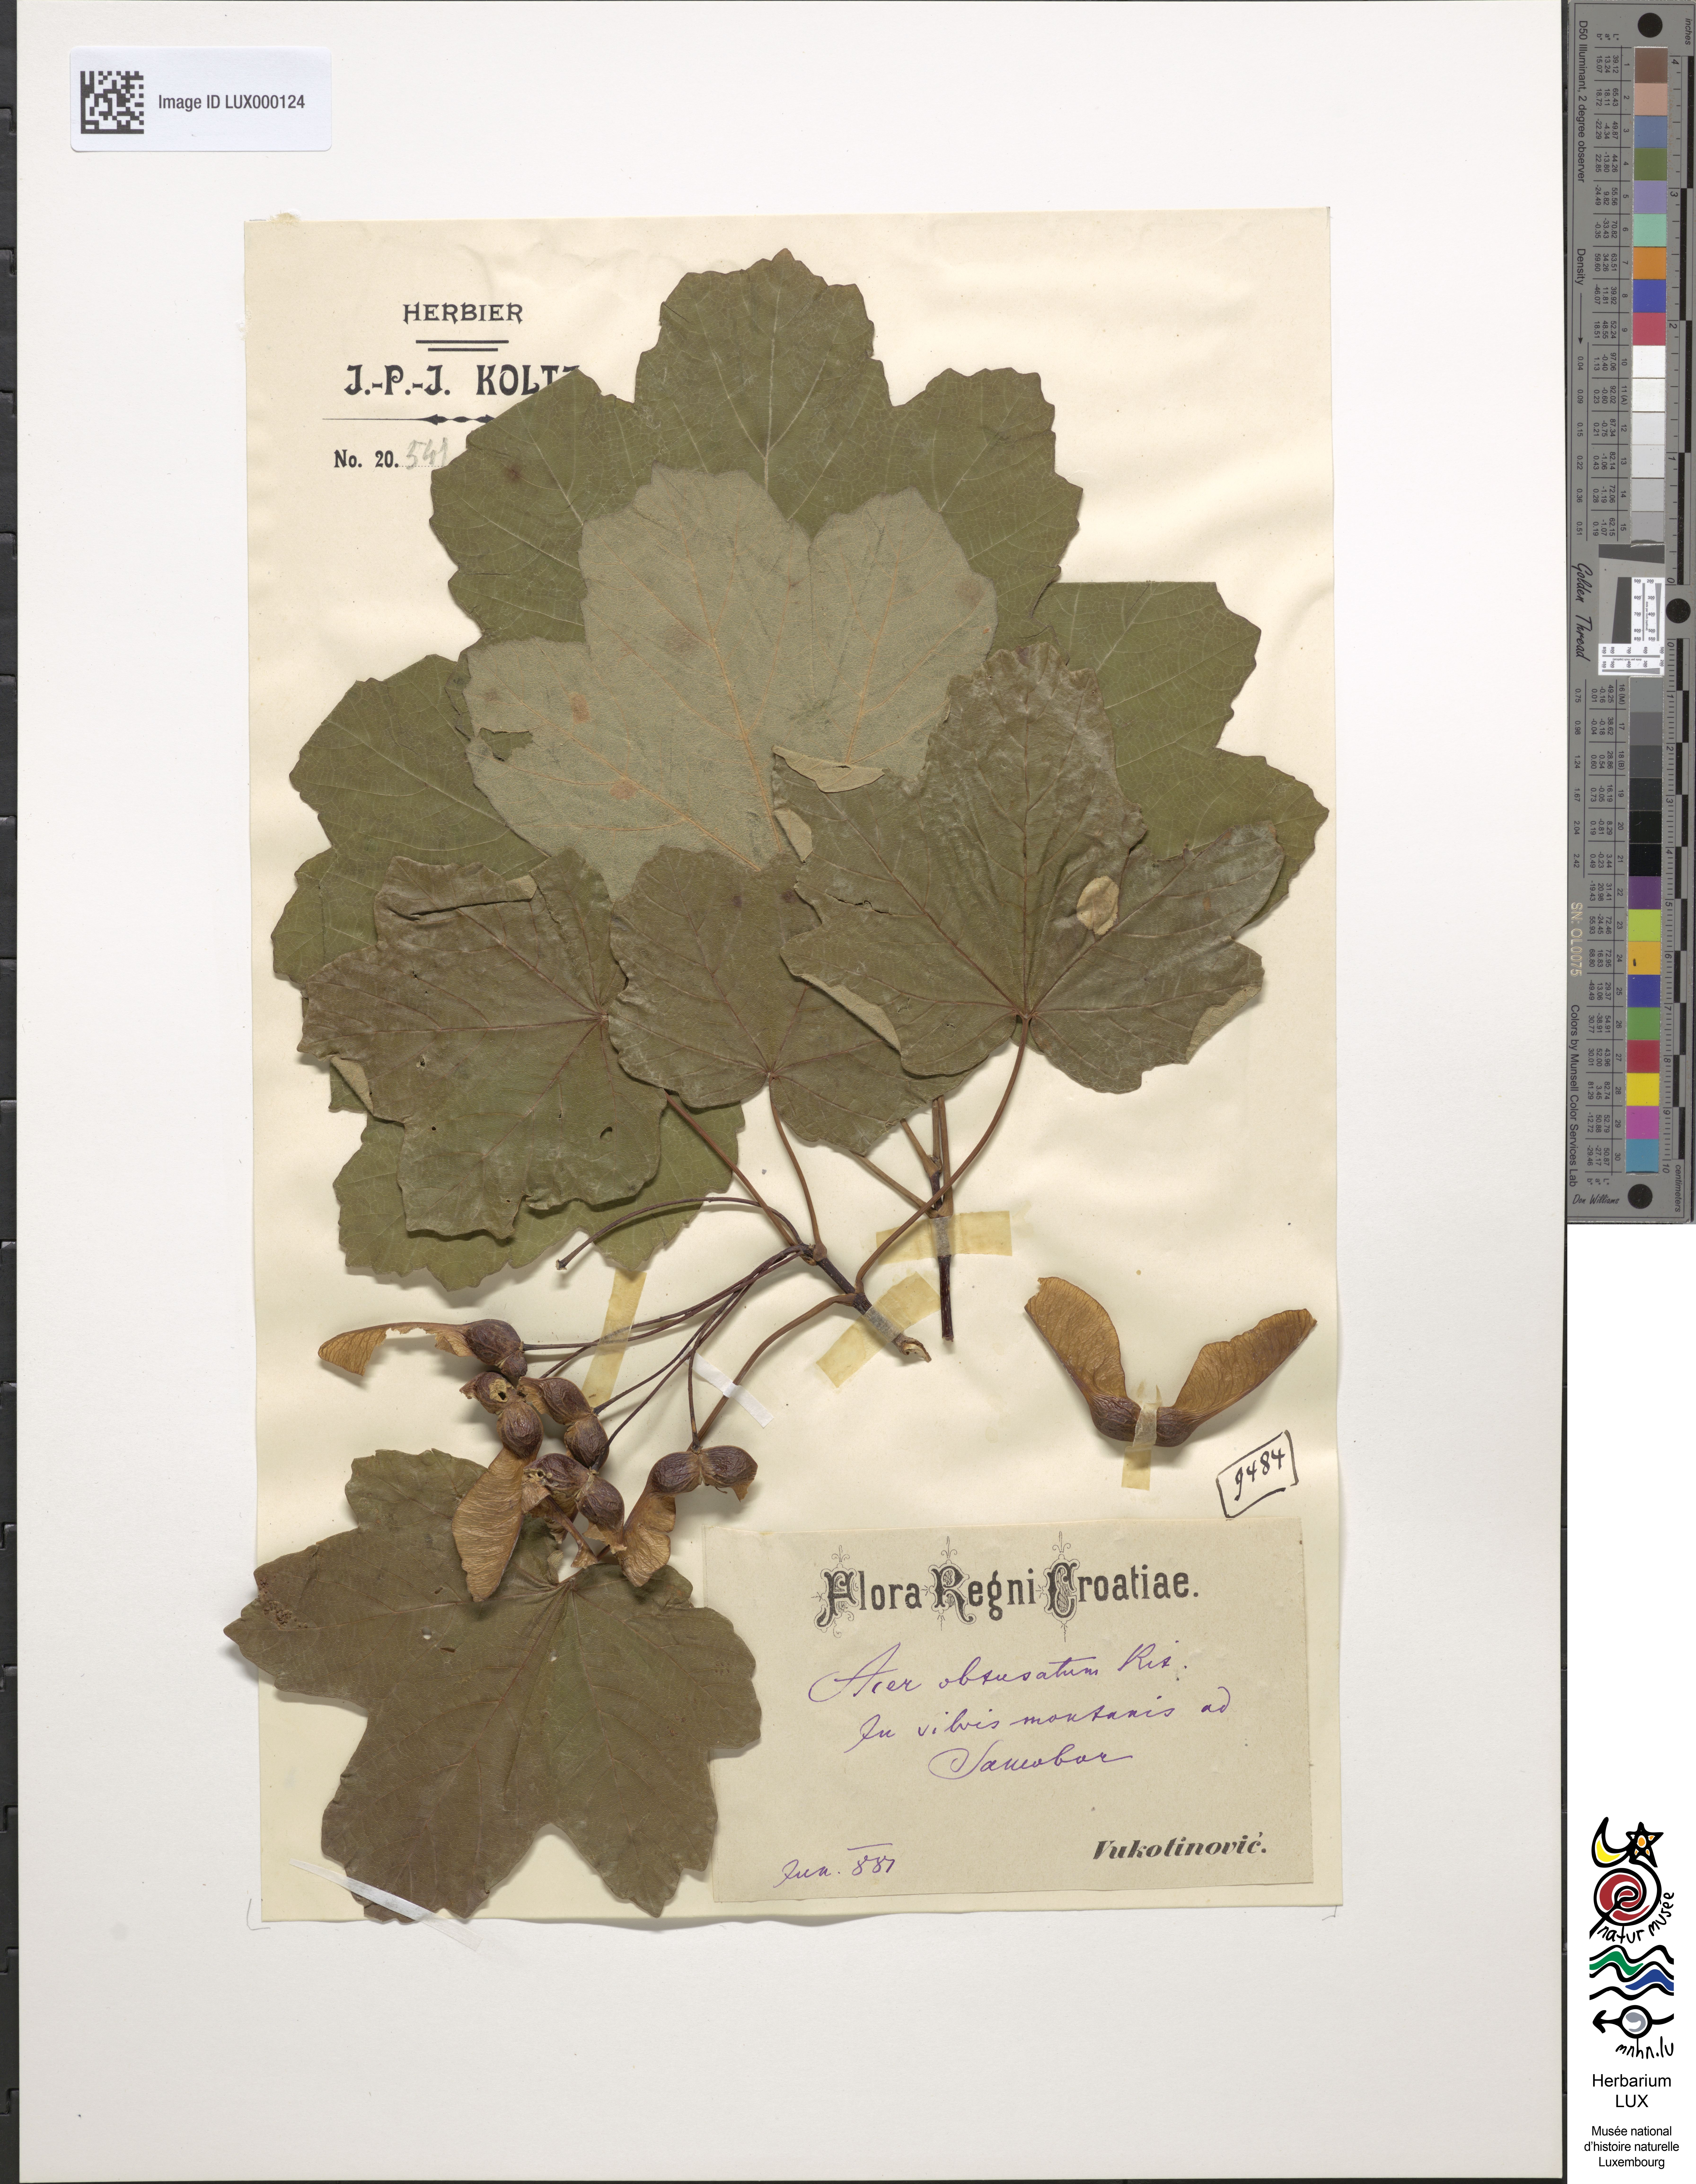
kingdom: Plantae
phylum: Tracheophyta
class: Magnoliopsida
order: Sapindales
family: Sapindaceae
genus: Acer
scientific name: Acer obtusatum
